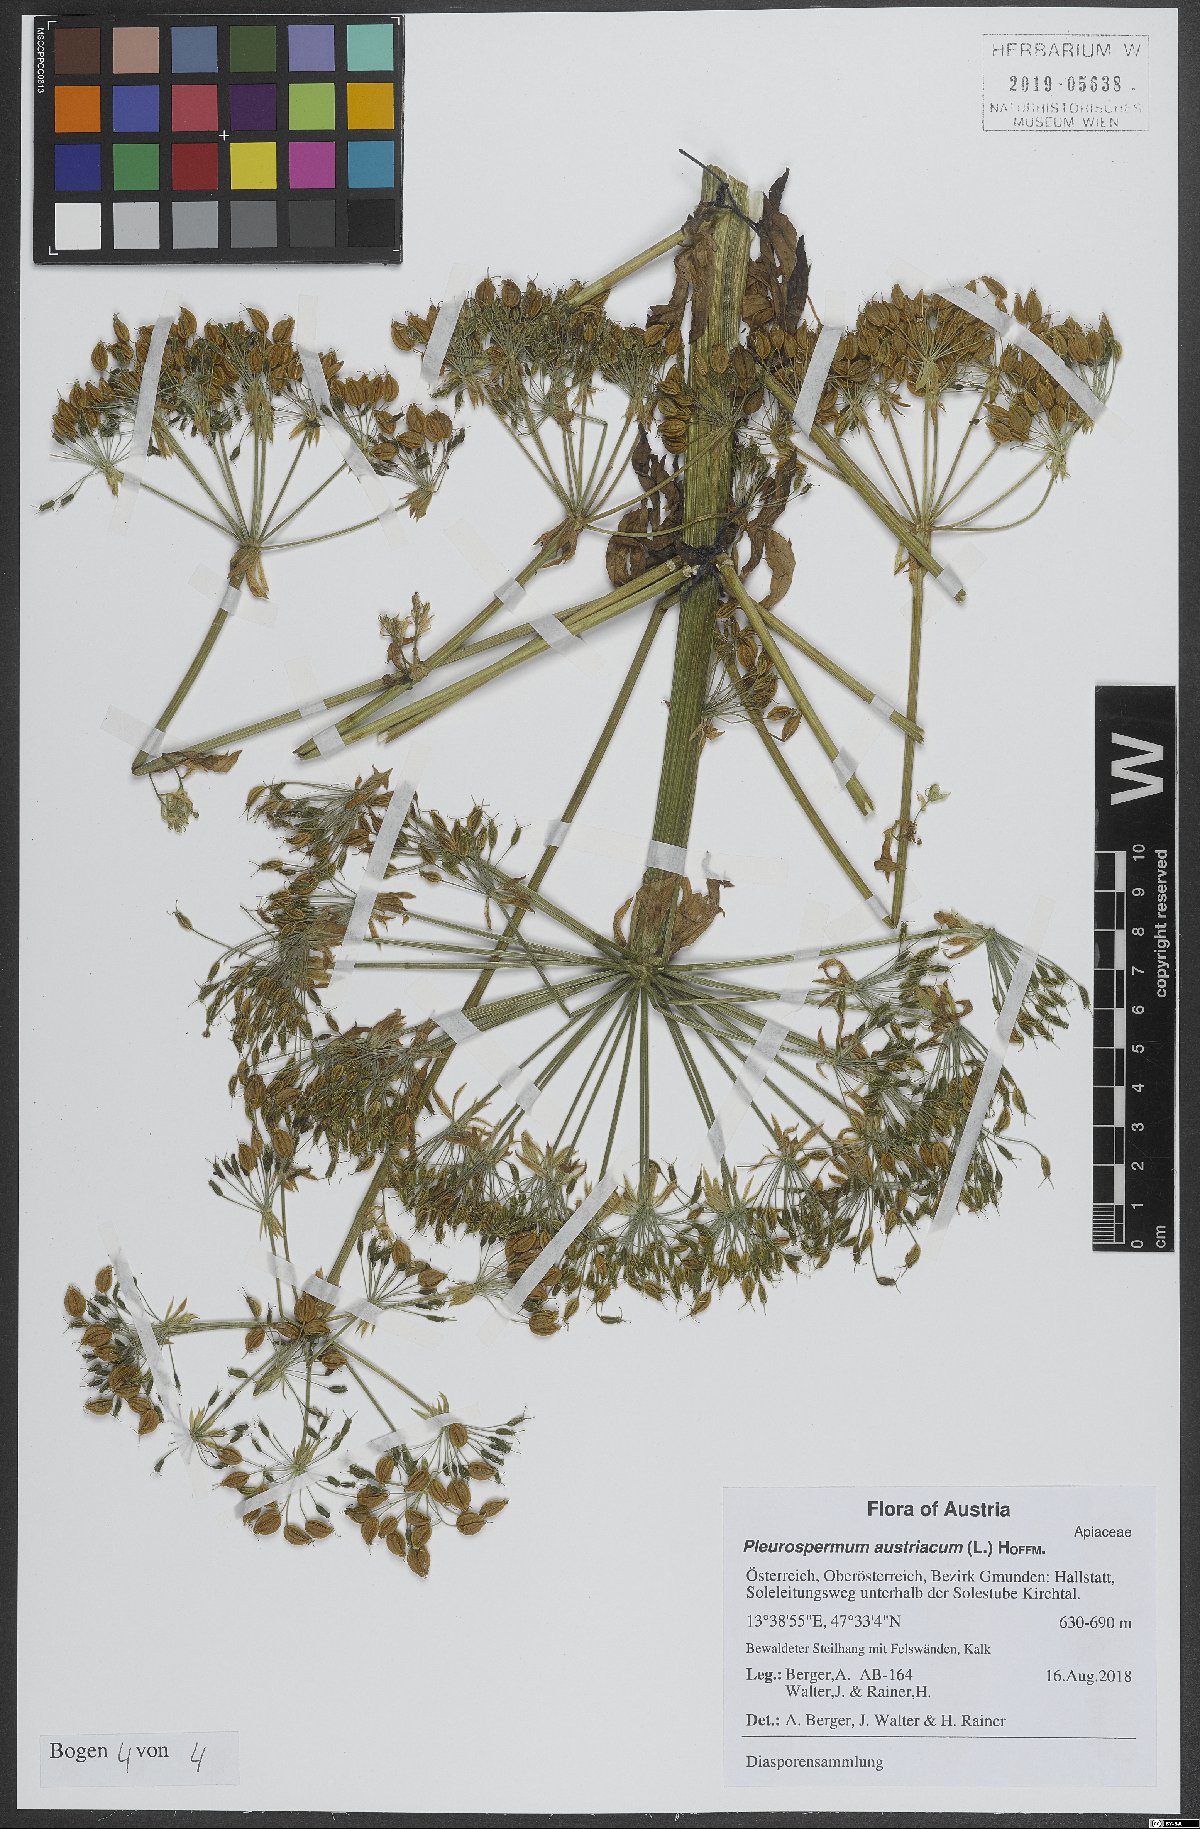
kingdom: Plantae
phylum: Tracheophyta
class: Magnoliopsida
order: Apiales
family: Apiaceae
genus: Pleurospermum
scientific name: Pleurospermum austriacum
